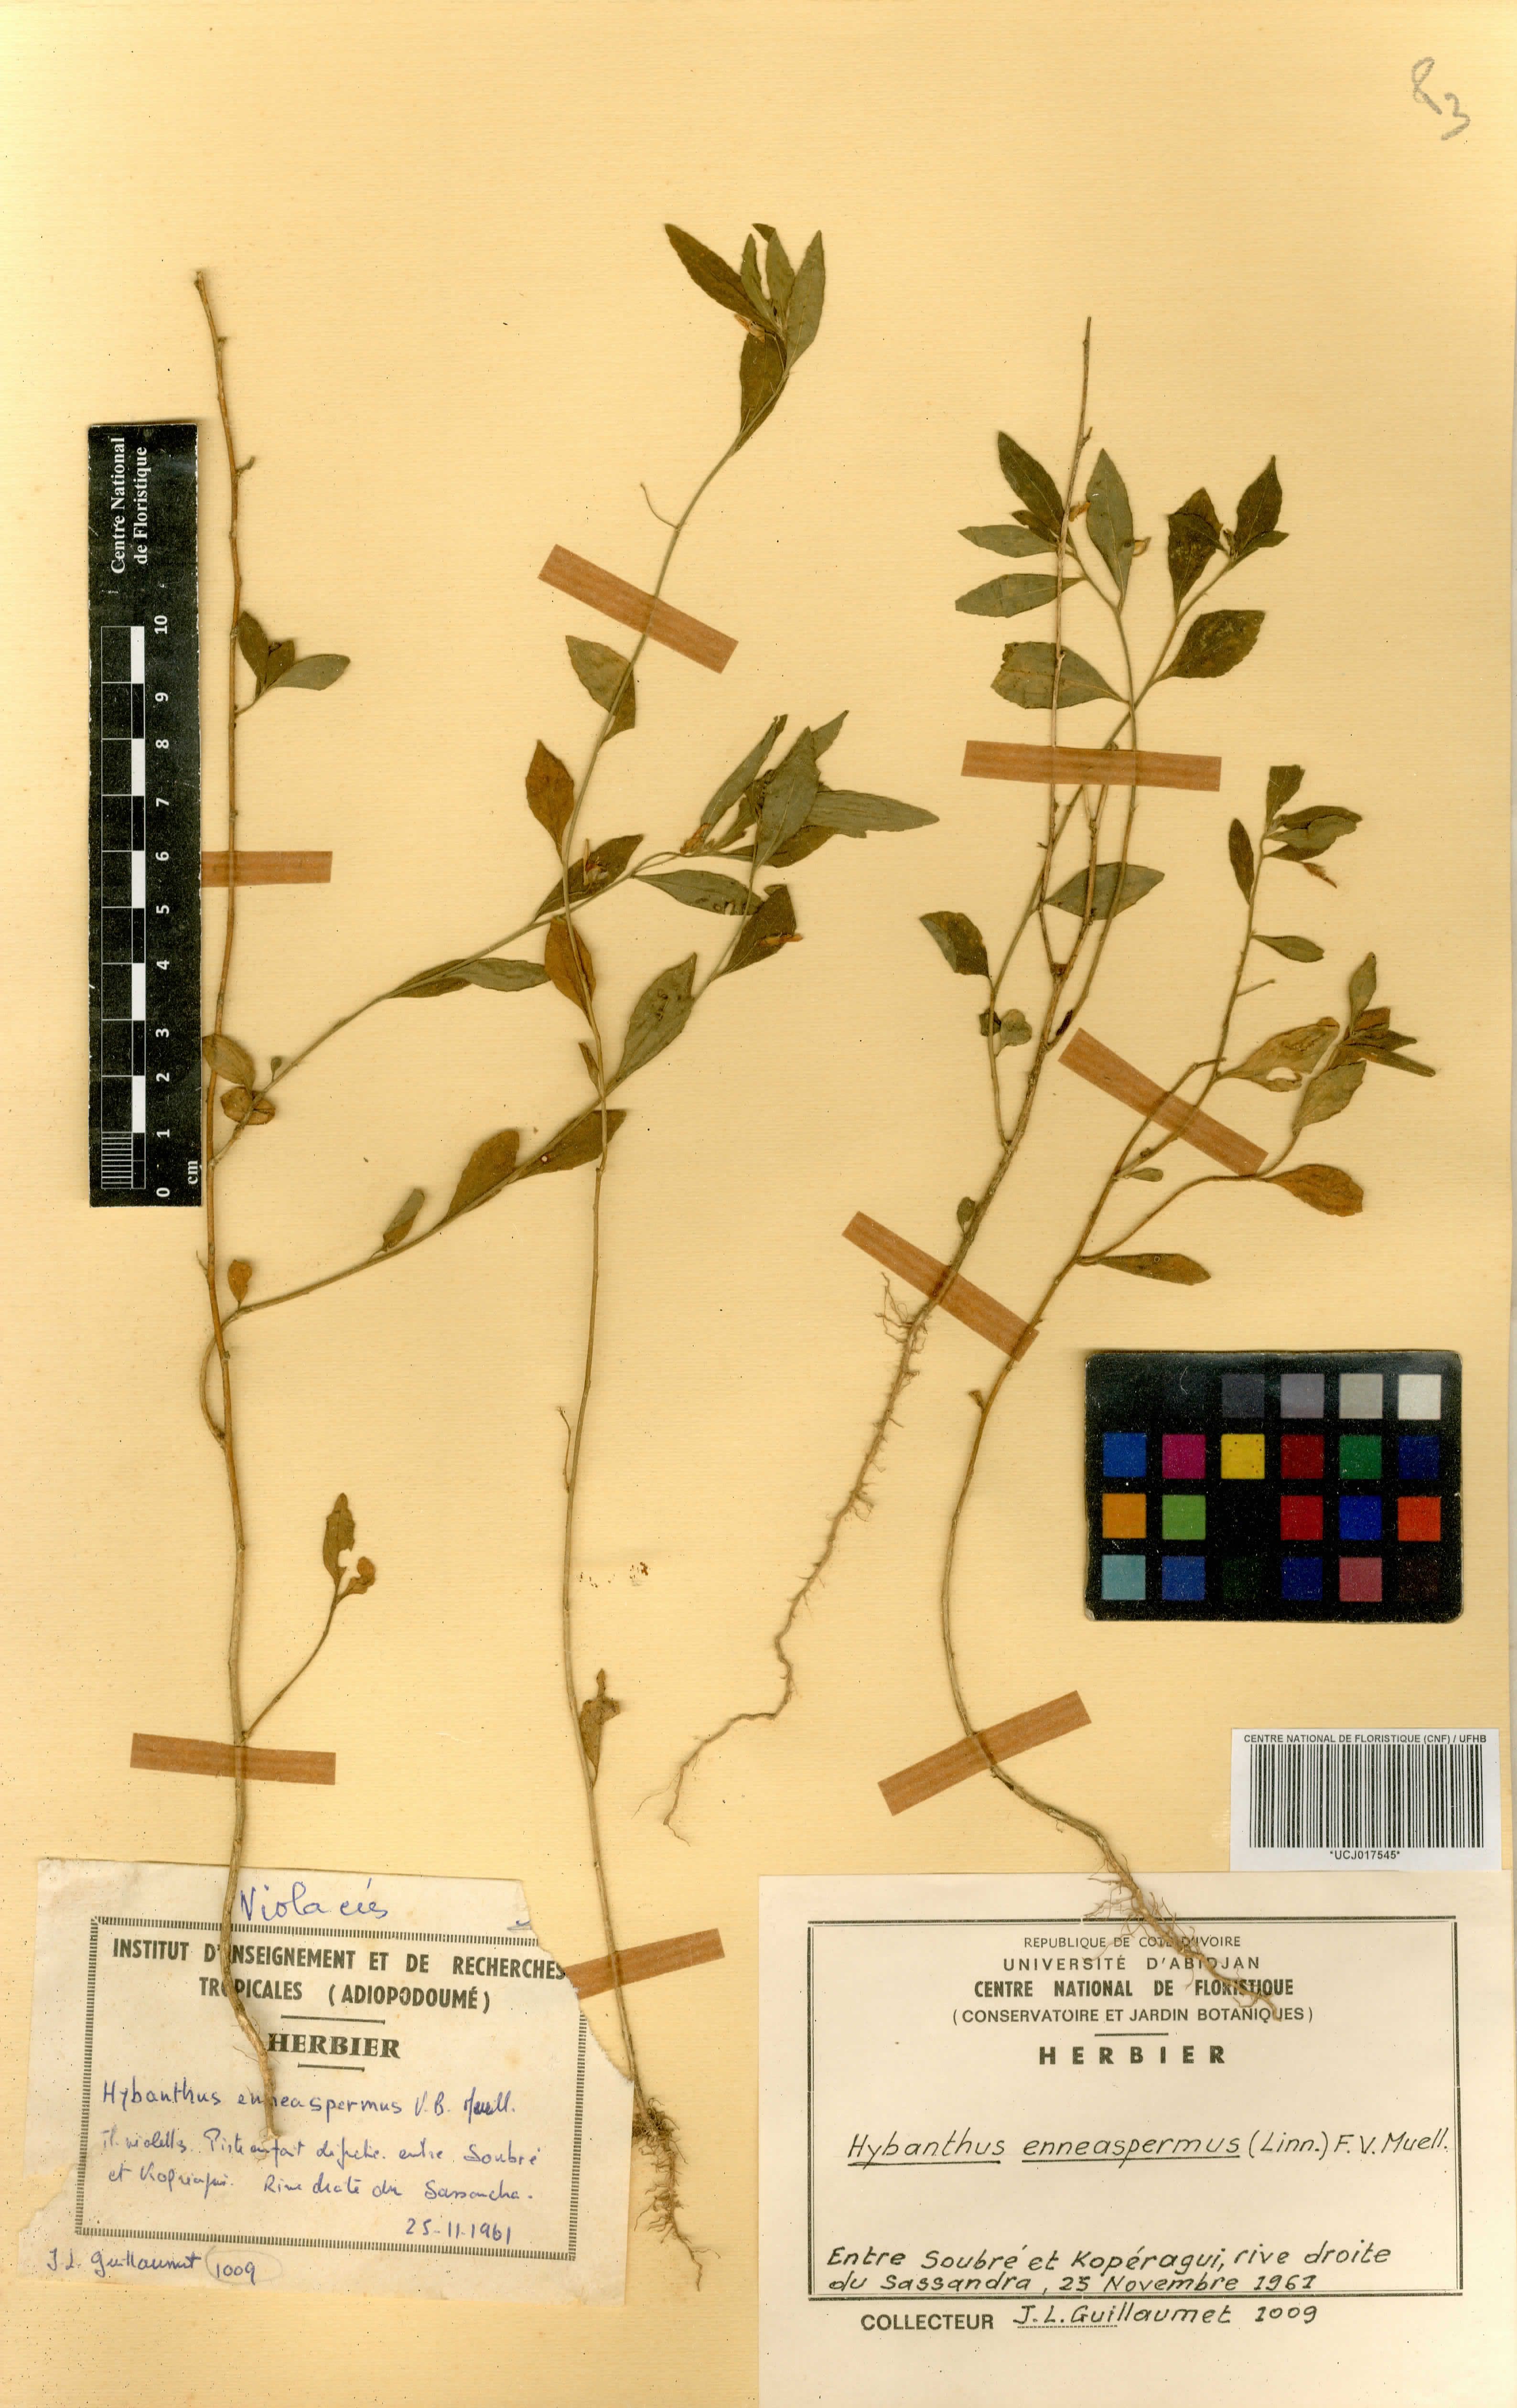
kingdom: Plantae
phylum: Tracheophyta
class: Magnoliopsida
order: Malpighiales
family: Violaceae
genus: Pigea
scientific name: Pigea enneasperma
